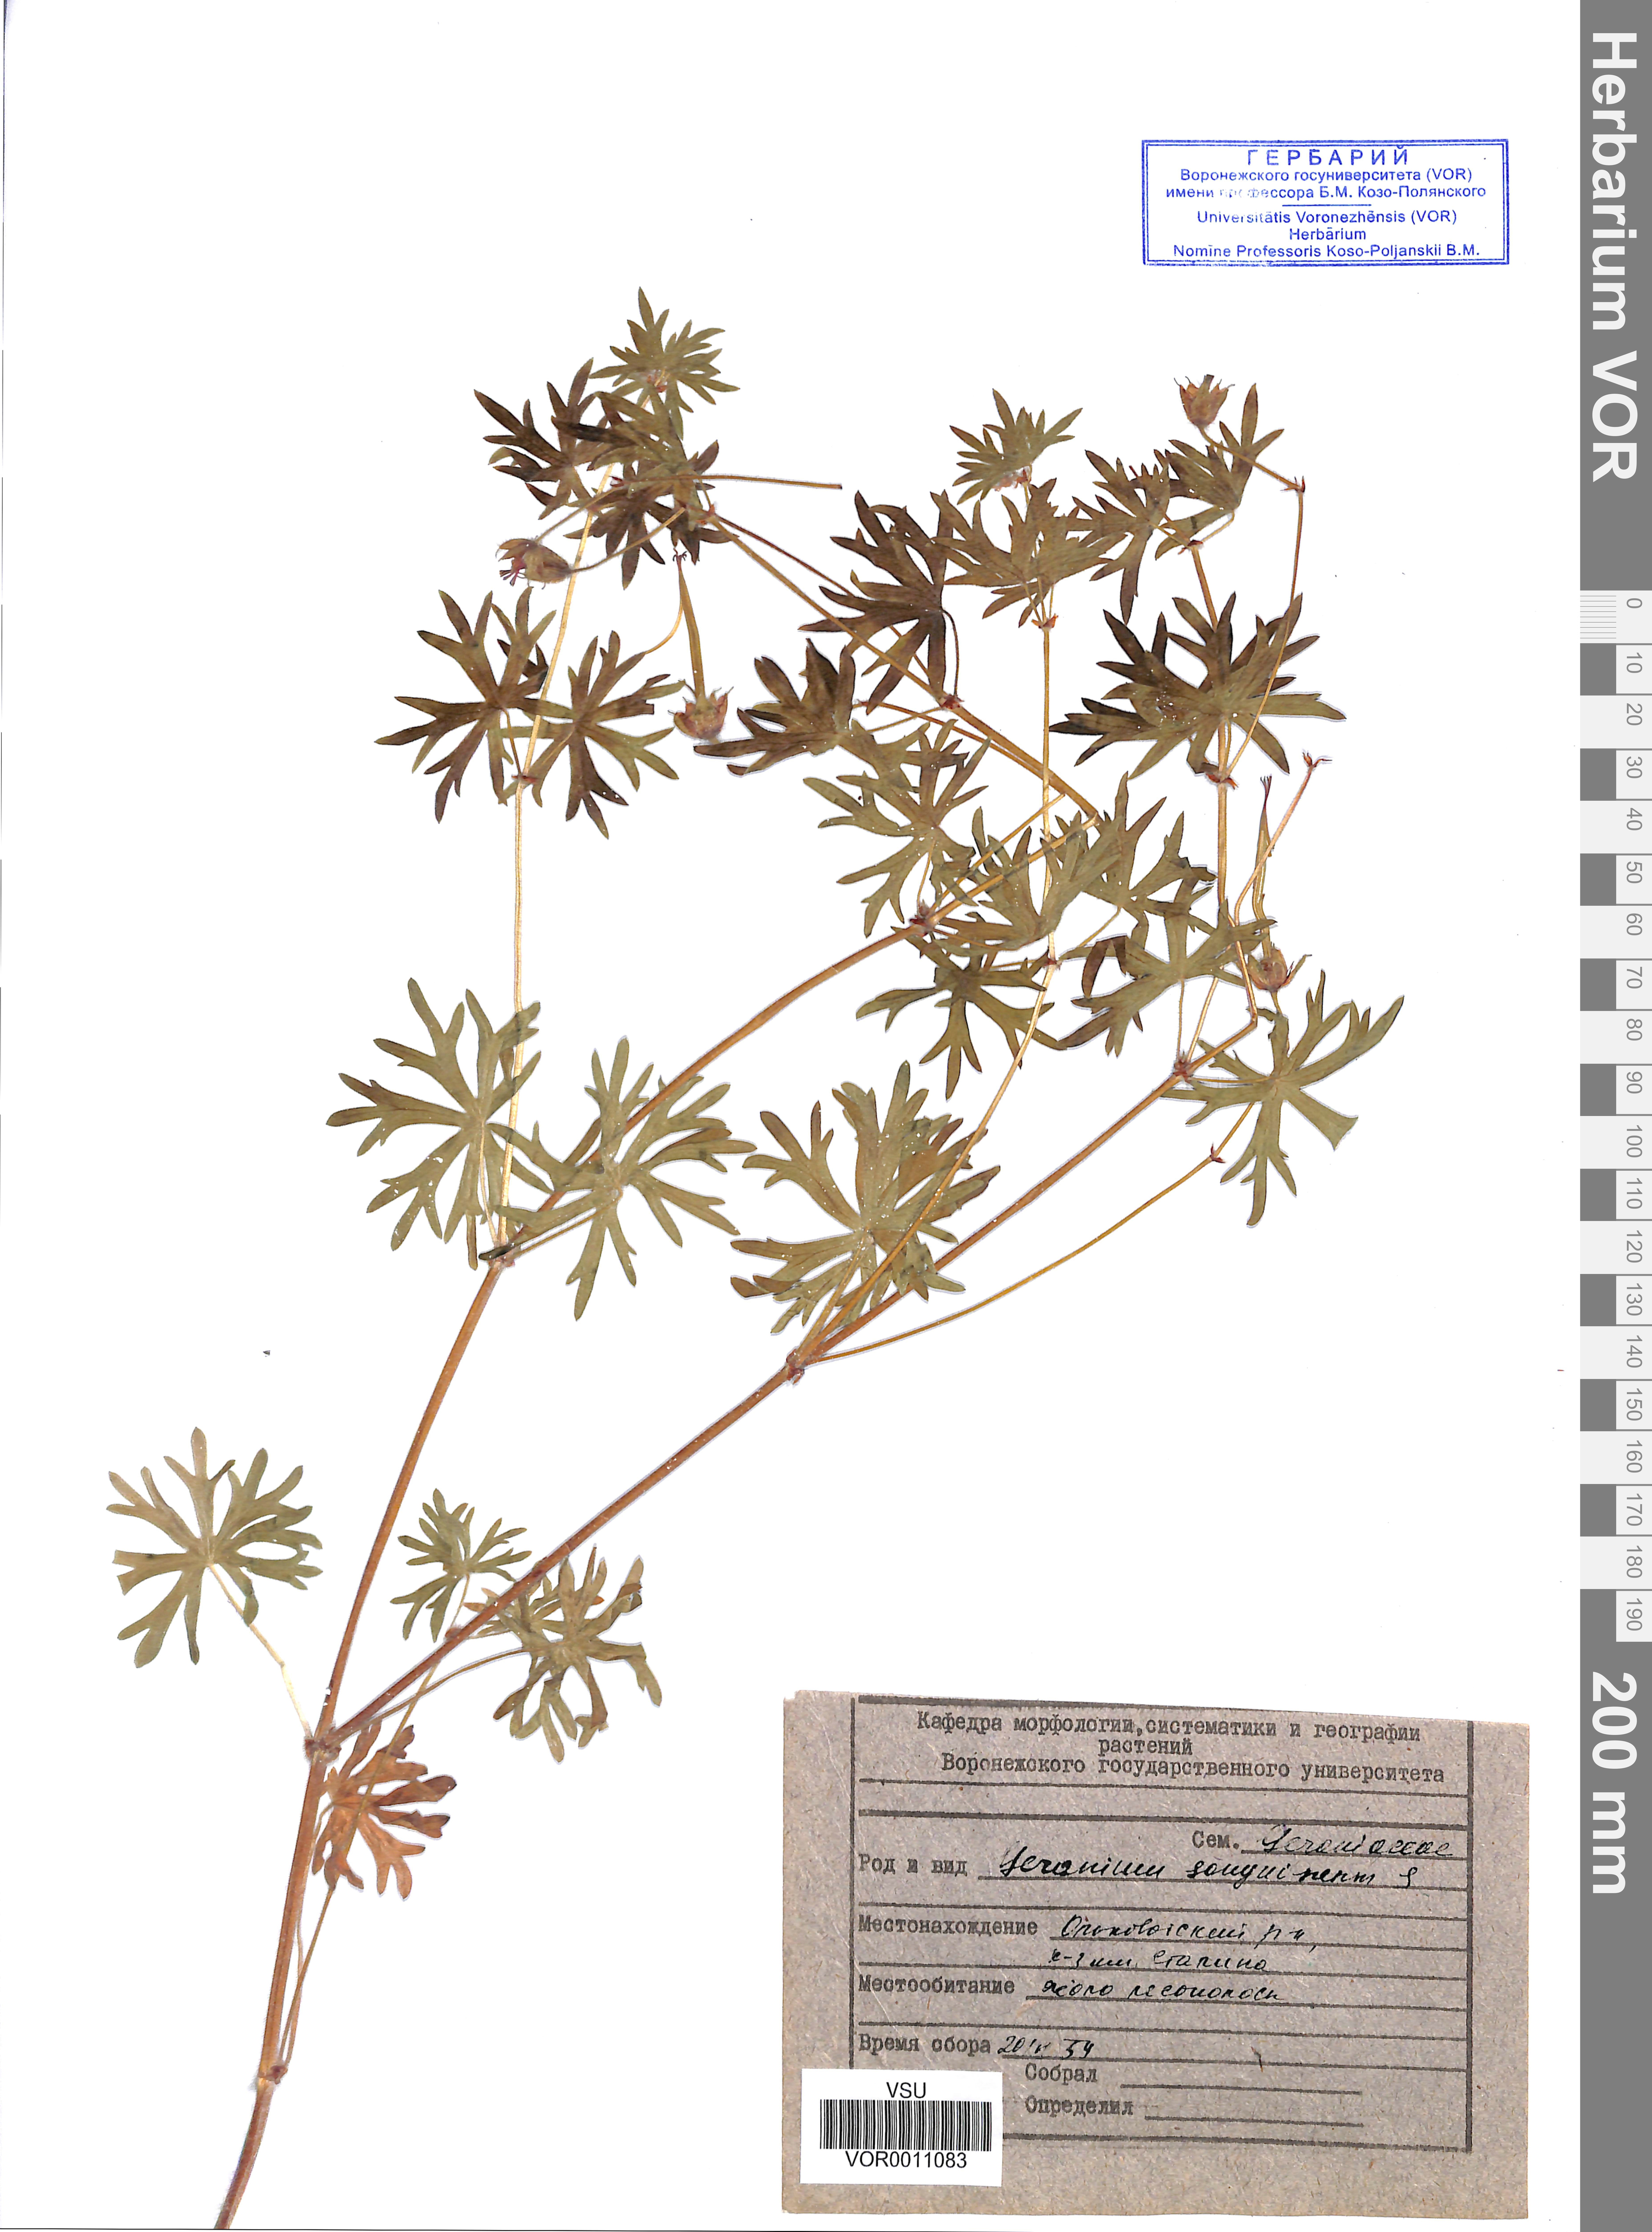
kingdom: Plantae
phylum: Tracheophyta
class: Magnoliopsida
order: Geraniales
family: Geraniaceae
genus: Geranium
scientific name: Geranium sanguineum
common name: Bloody crane's-bill
